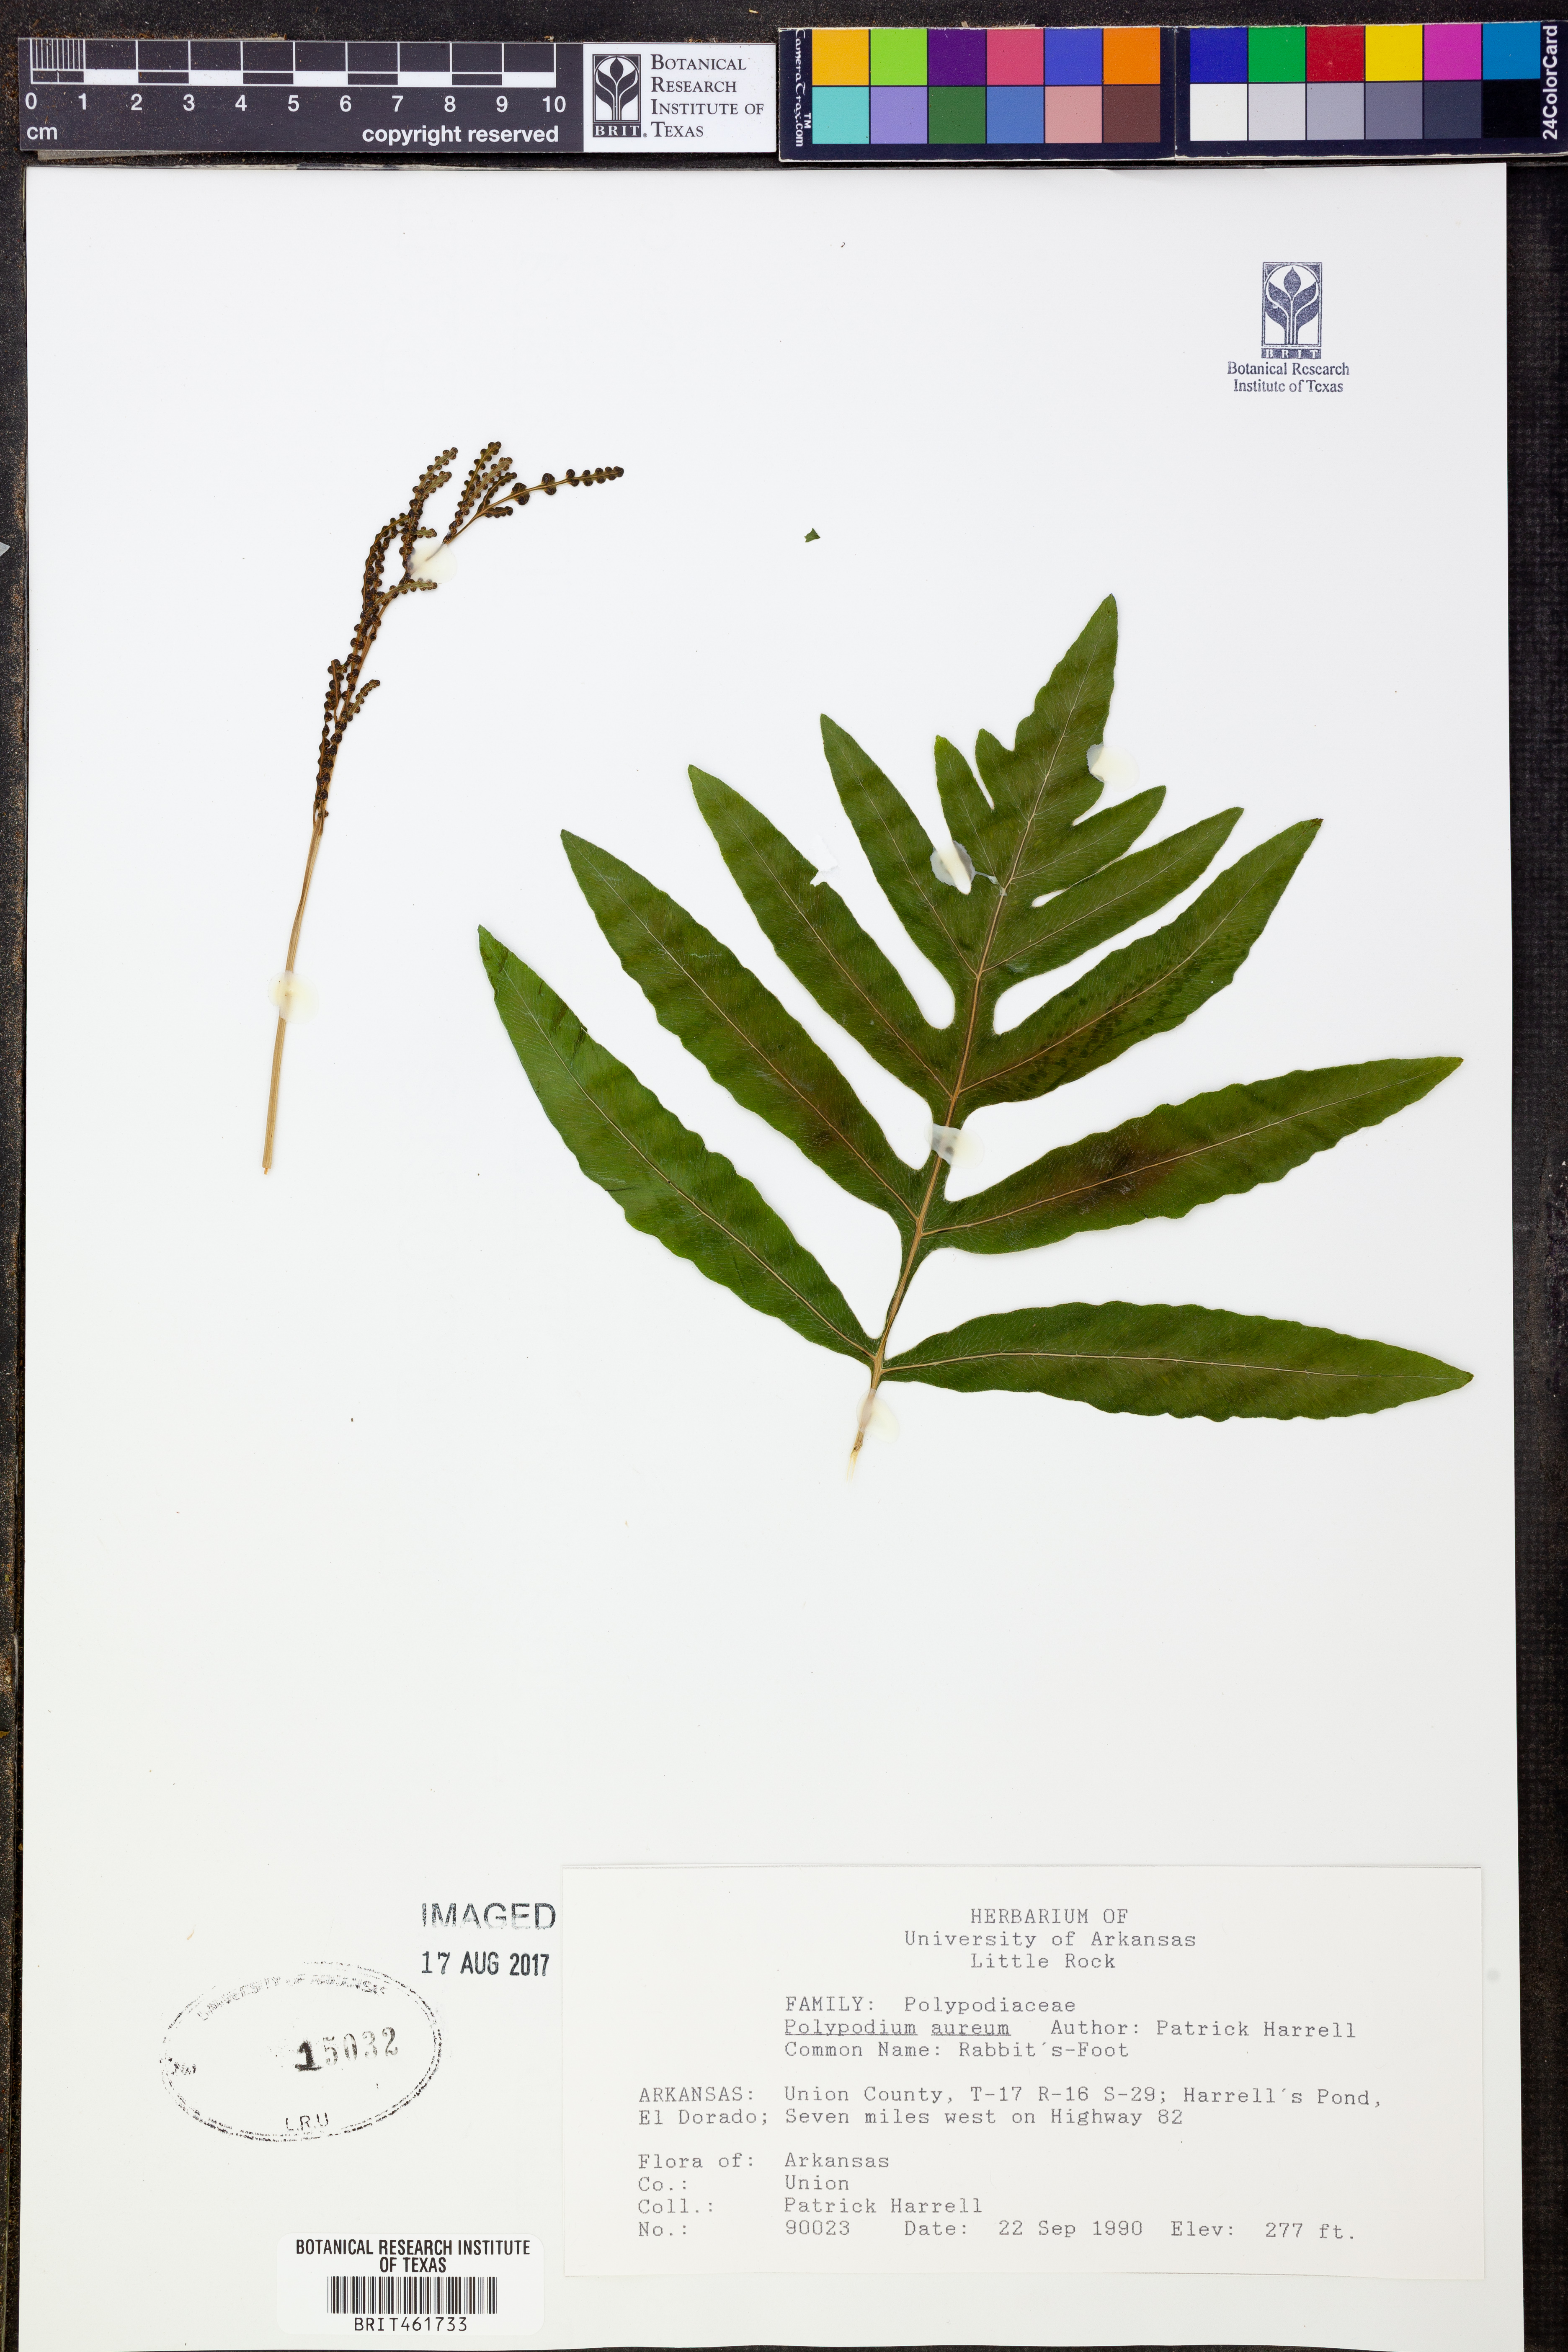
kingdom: Plantae
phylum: Tracheophyta
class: Polypodiopsida
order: Polypodiales
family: Polypodiaceae
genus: Phlebodium
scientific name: Phlebodium aureum
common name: Gold-foot fern
